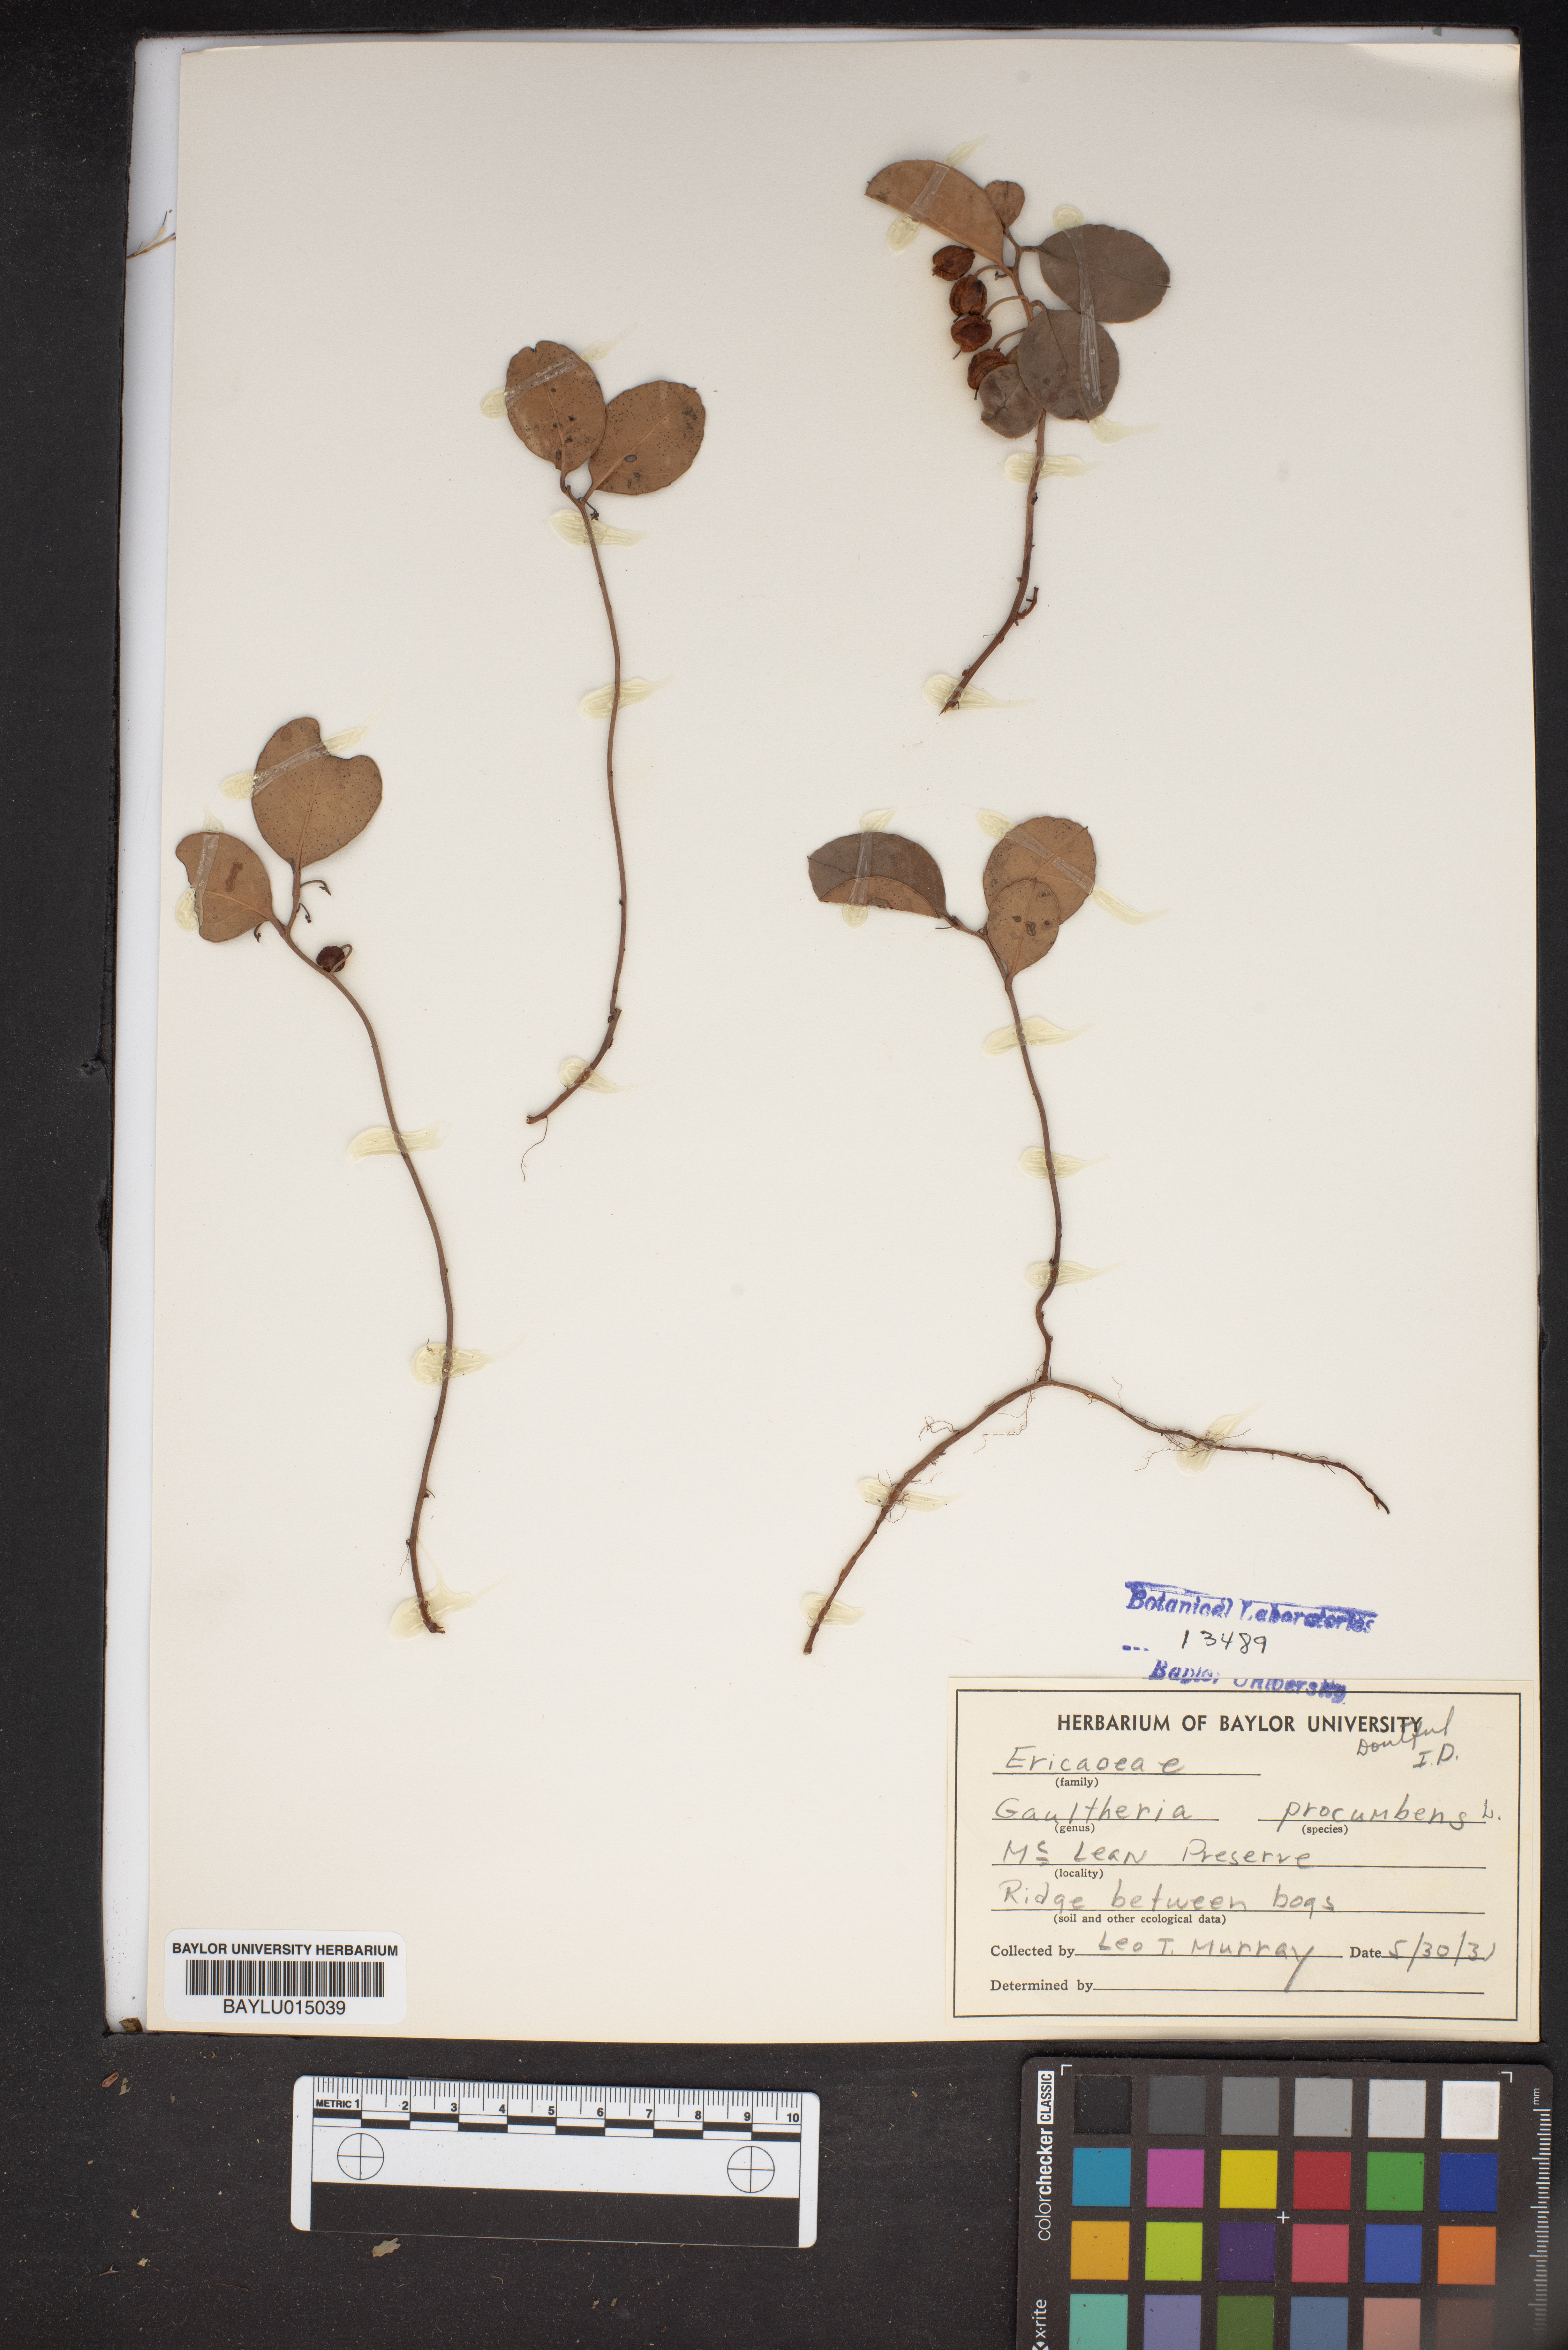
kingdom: Plantae
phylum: Tracheophyta
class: Magnoliopsida
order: Ericales
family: Ericaceae
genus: Gaultheria
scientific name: Gaultheria procumbens
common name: Checkerberry
